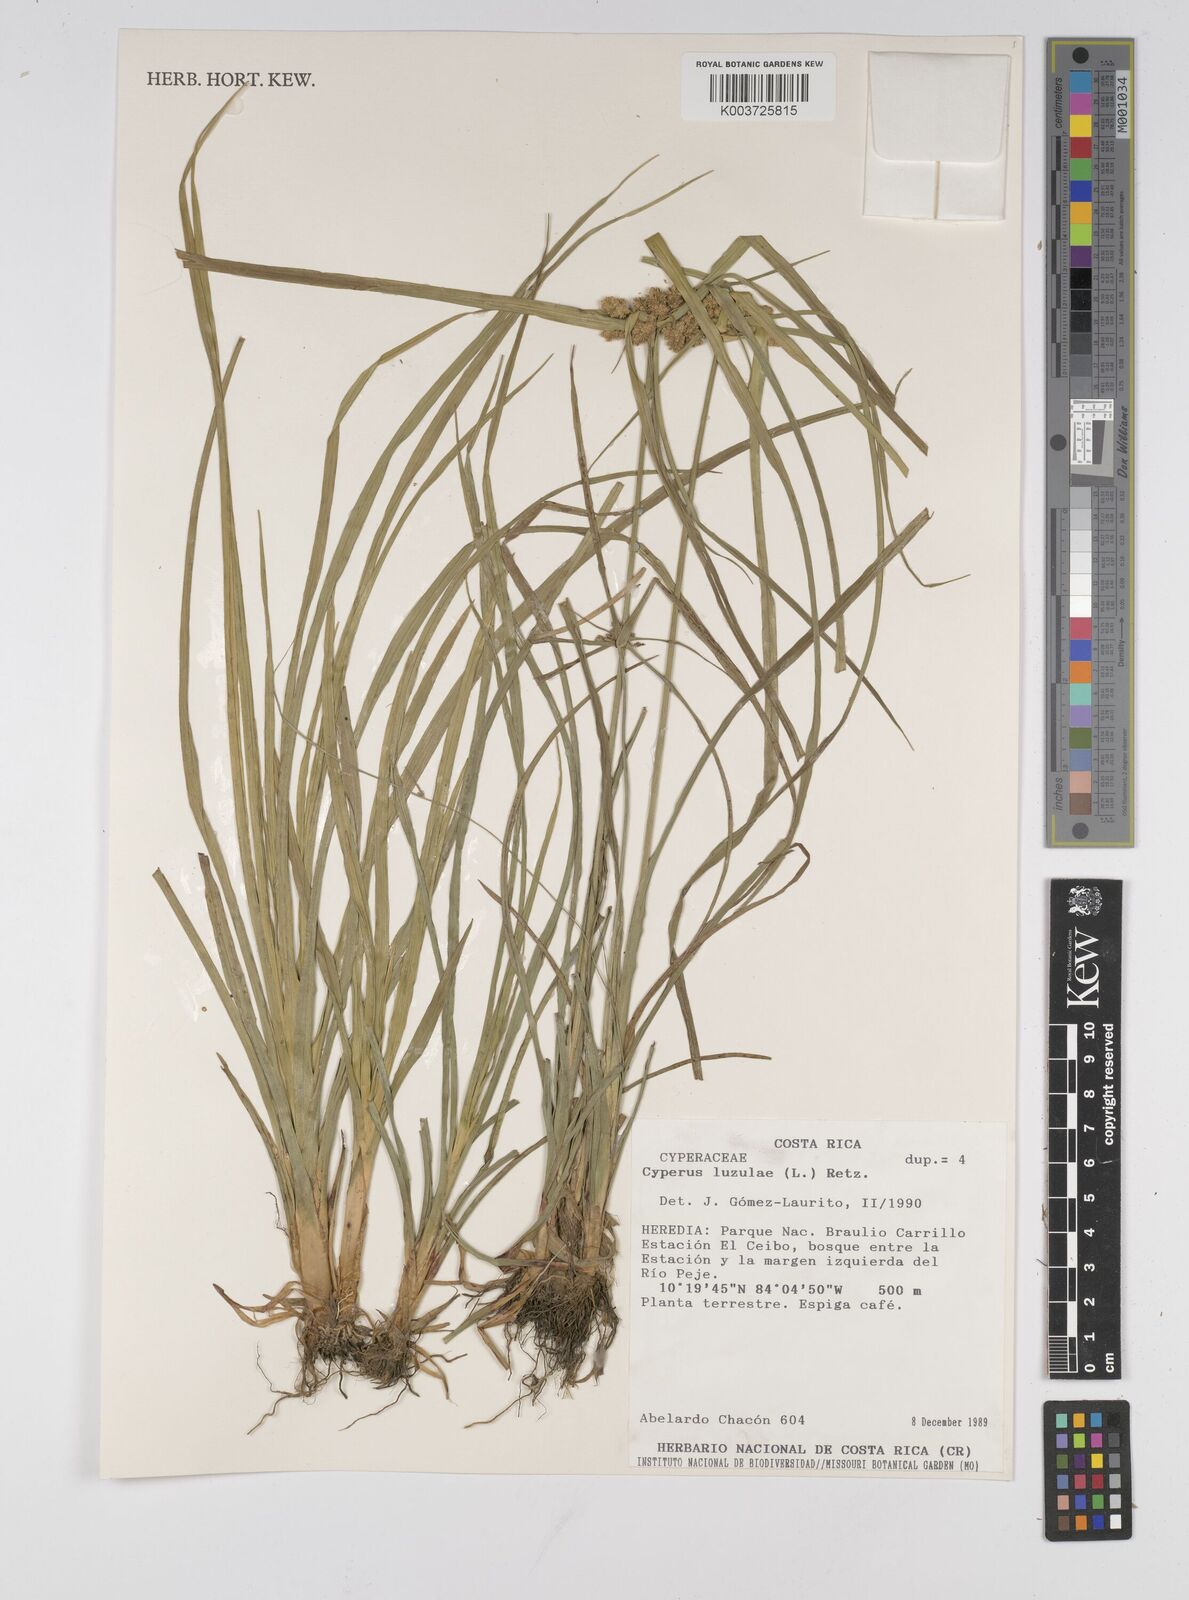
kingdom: Plantae
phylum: Tracheophyta
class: Liliopsida
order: Poales
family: Cyperaceae
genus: Cyperus
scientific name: Cyperus luzulae
